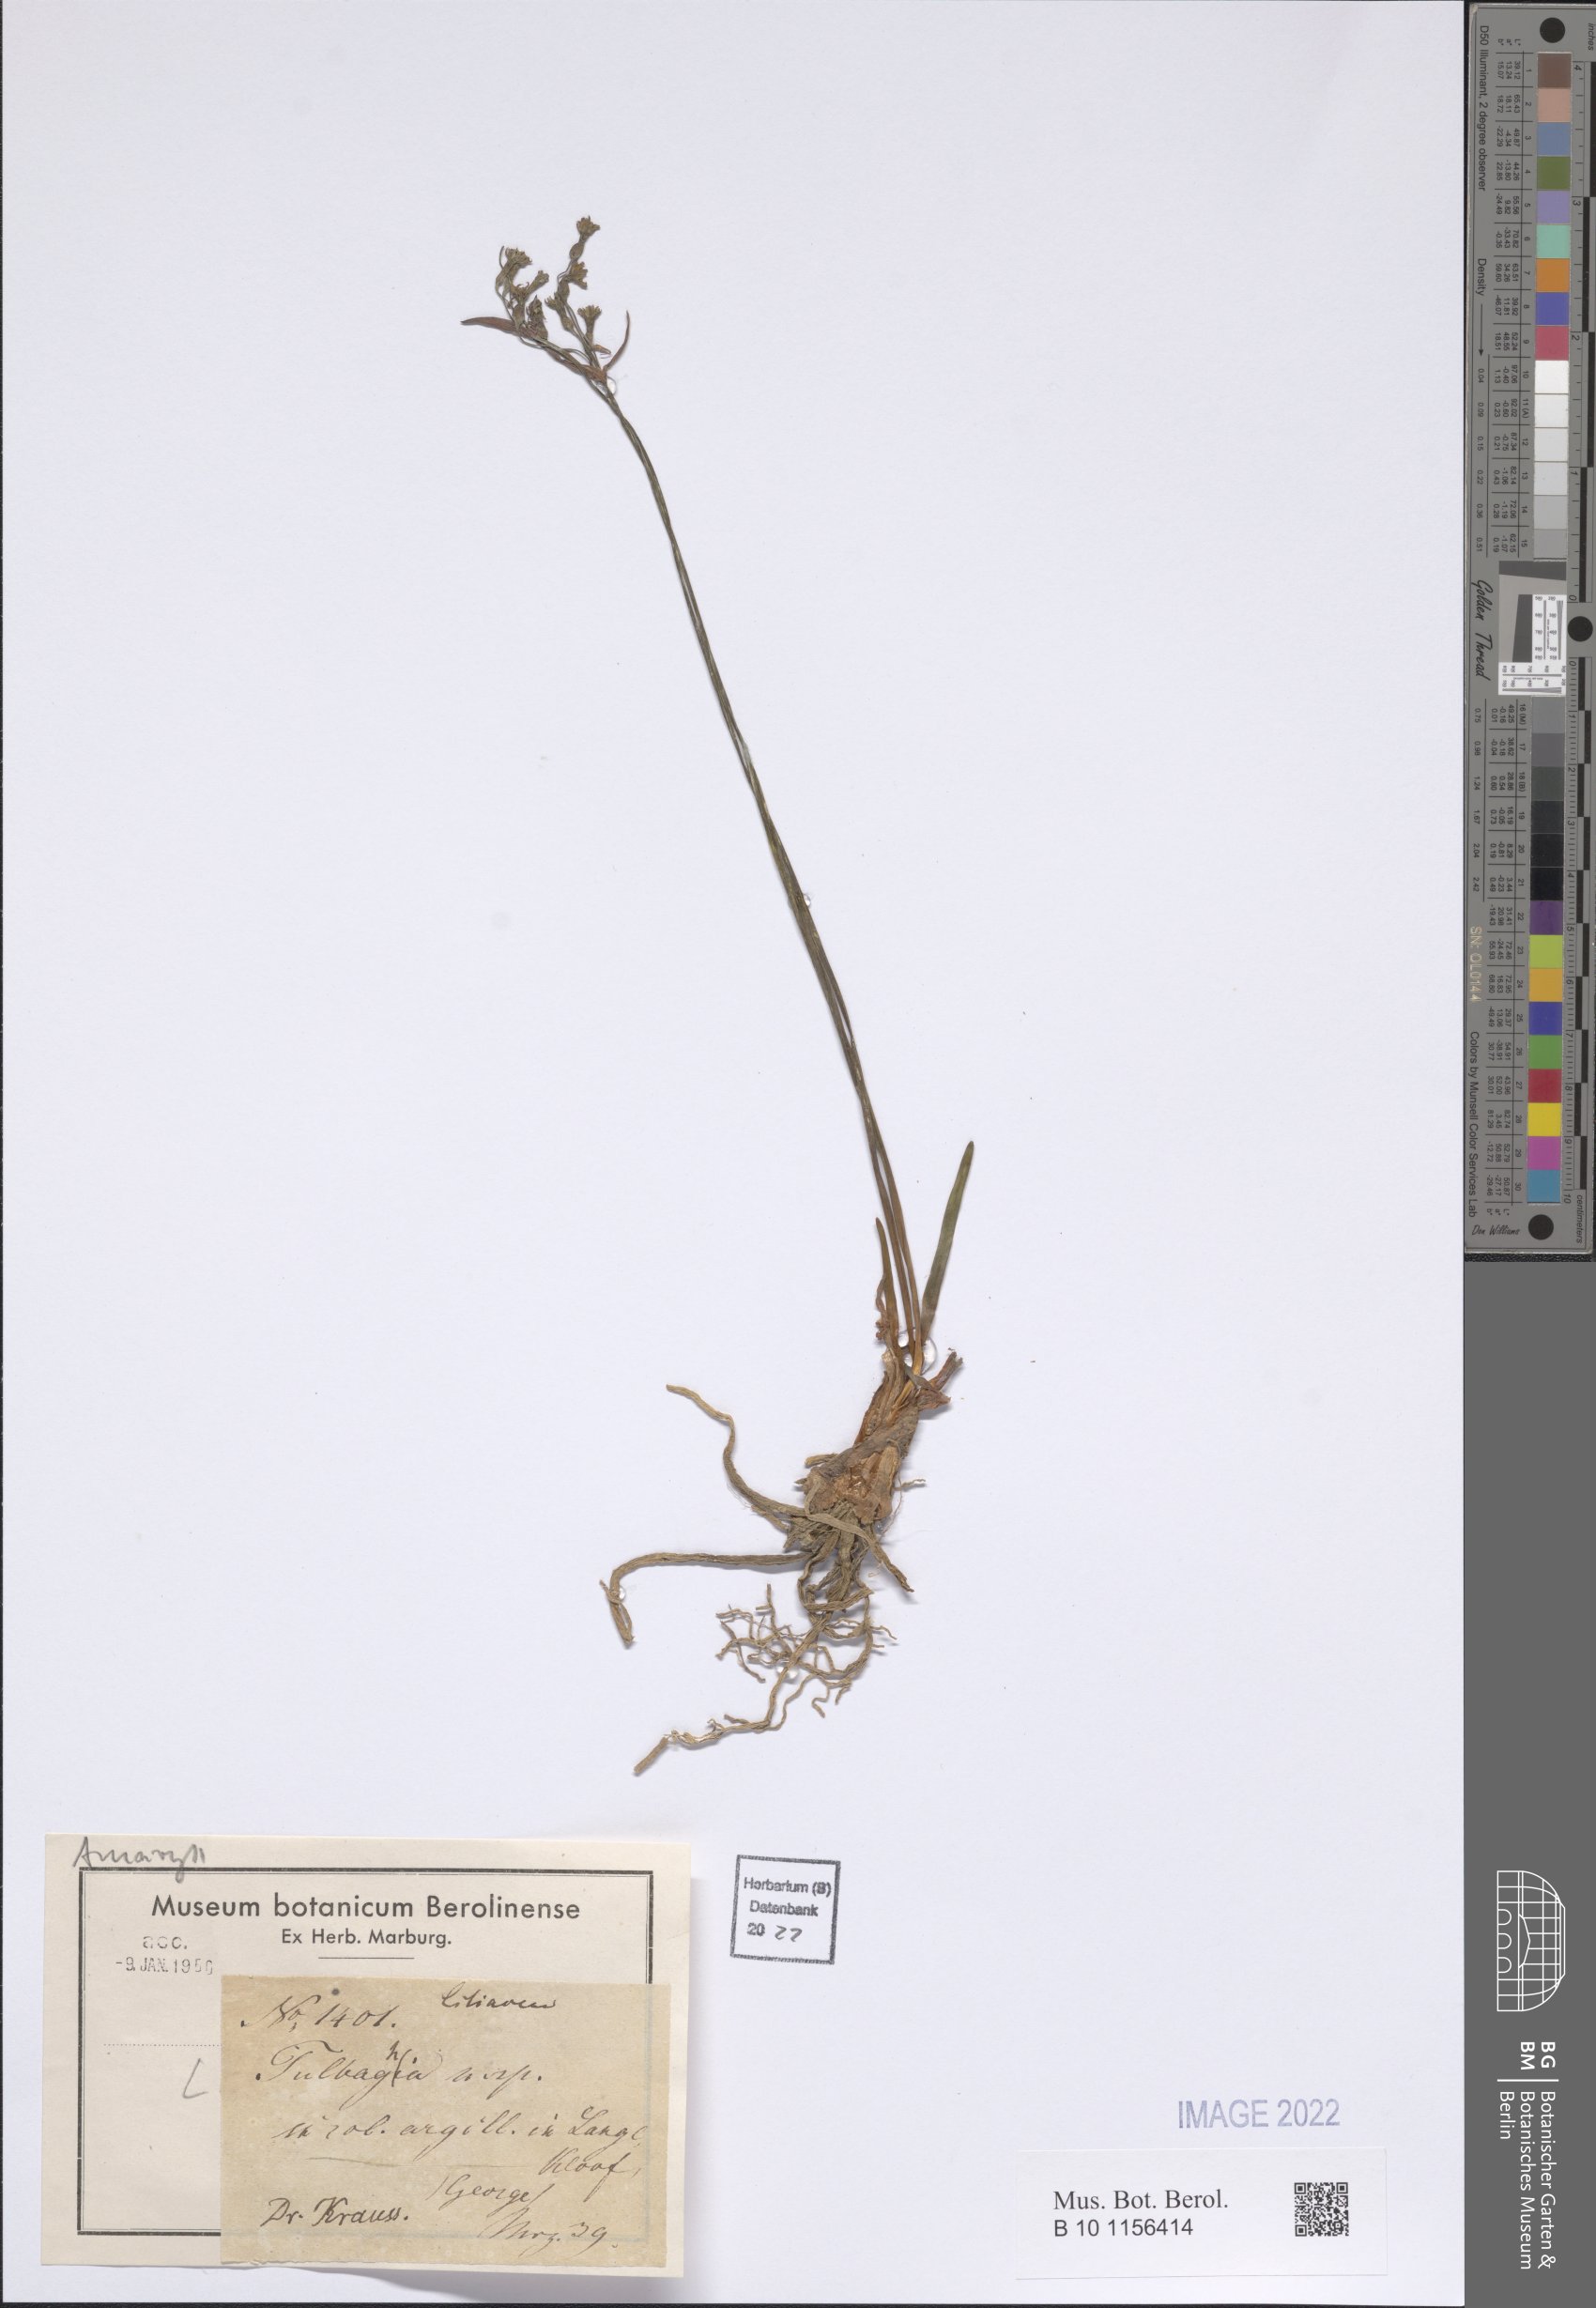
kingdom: Plantae
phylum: Tracheophyta
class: Liliopsida
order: Asparagales
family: Amaryllidaceae
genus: Tulbaghia
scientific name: Tulbaghia
